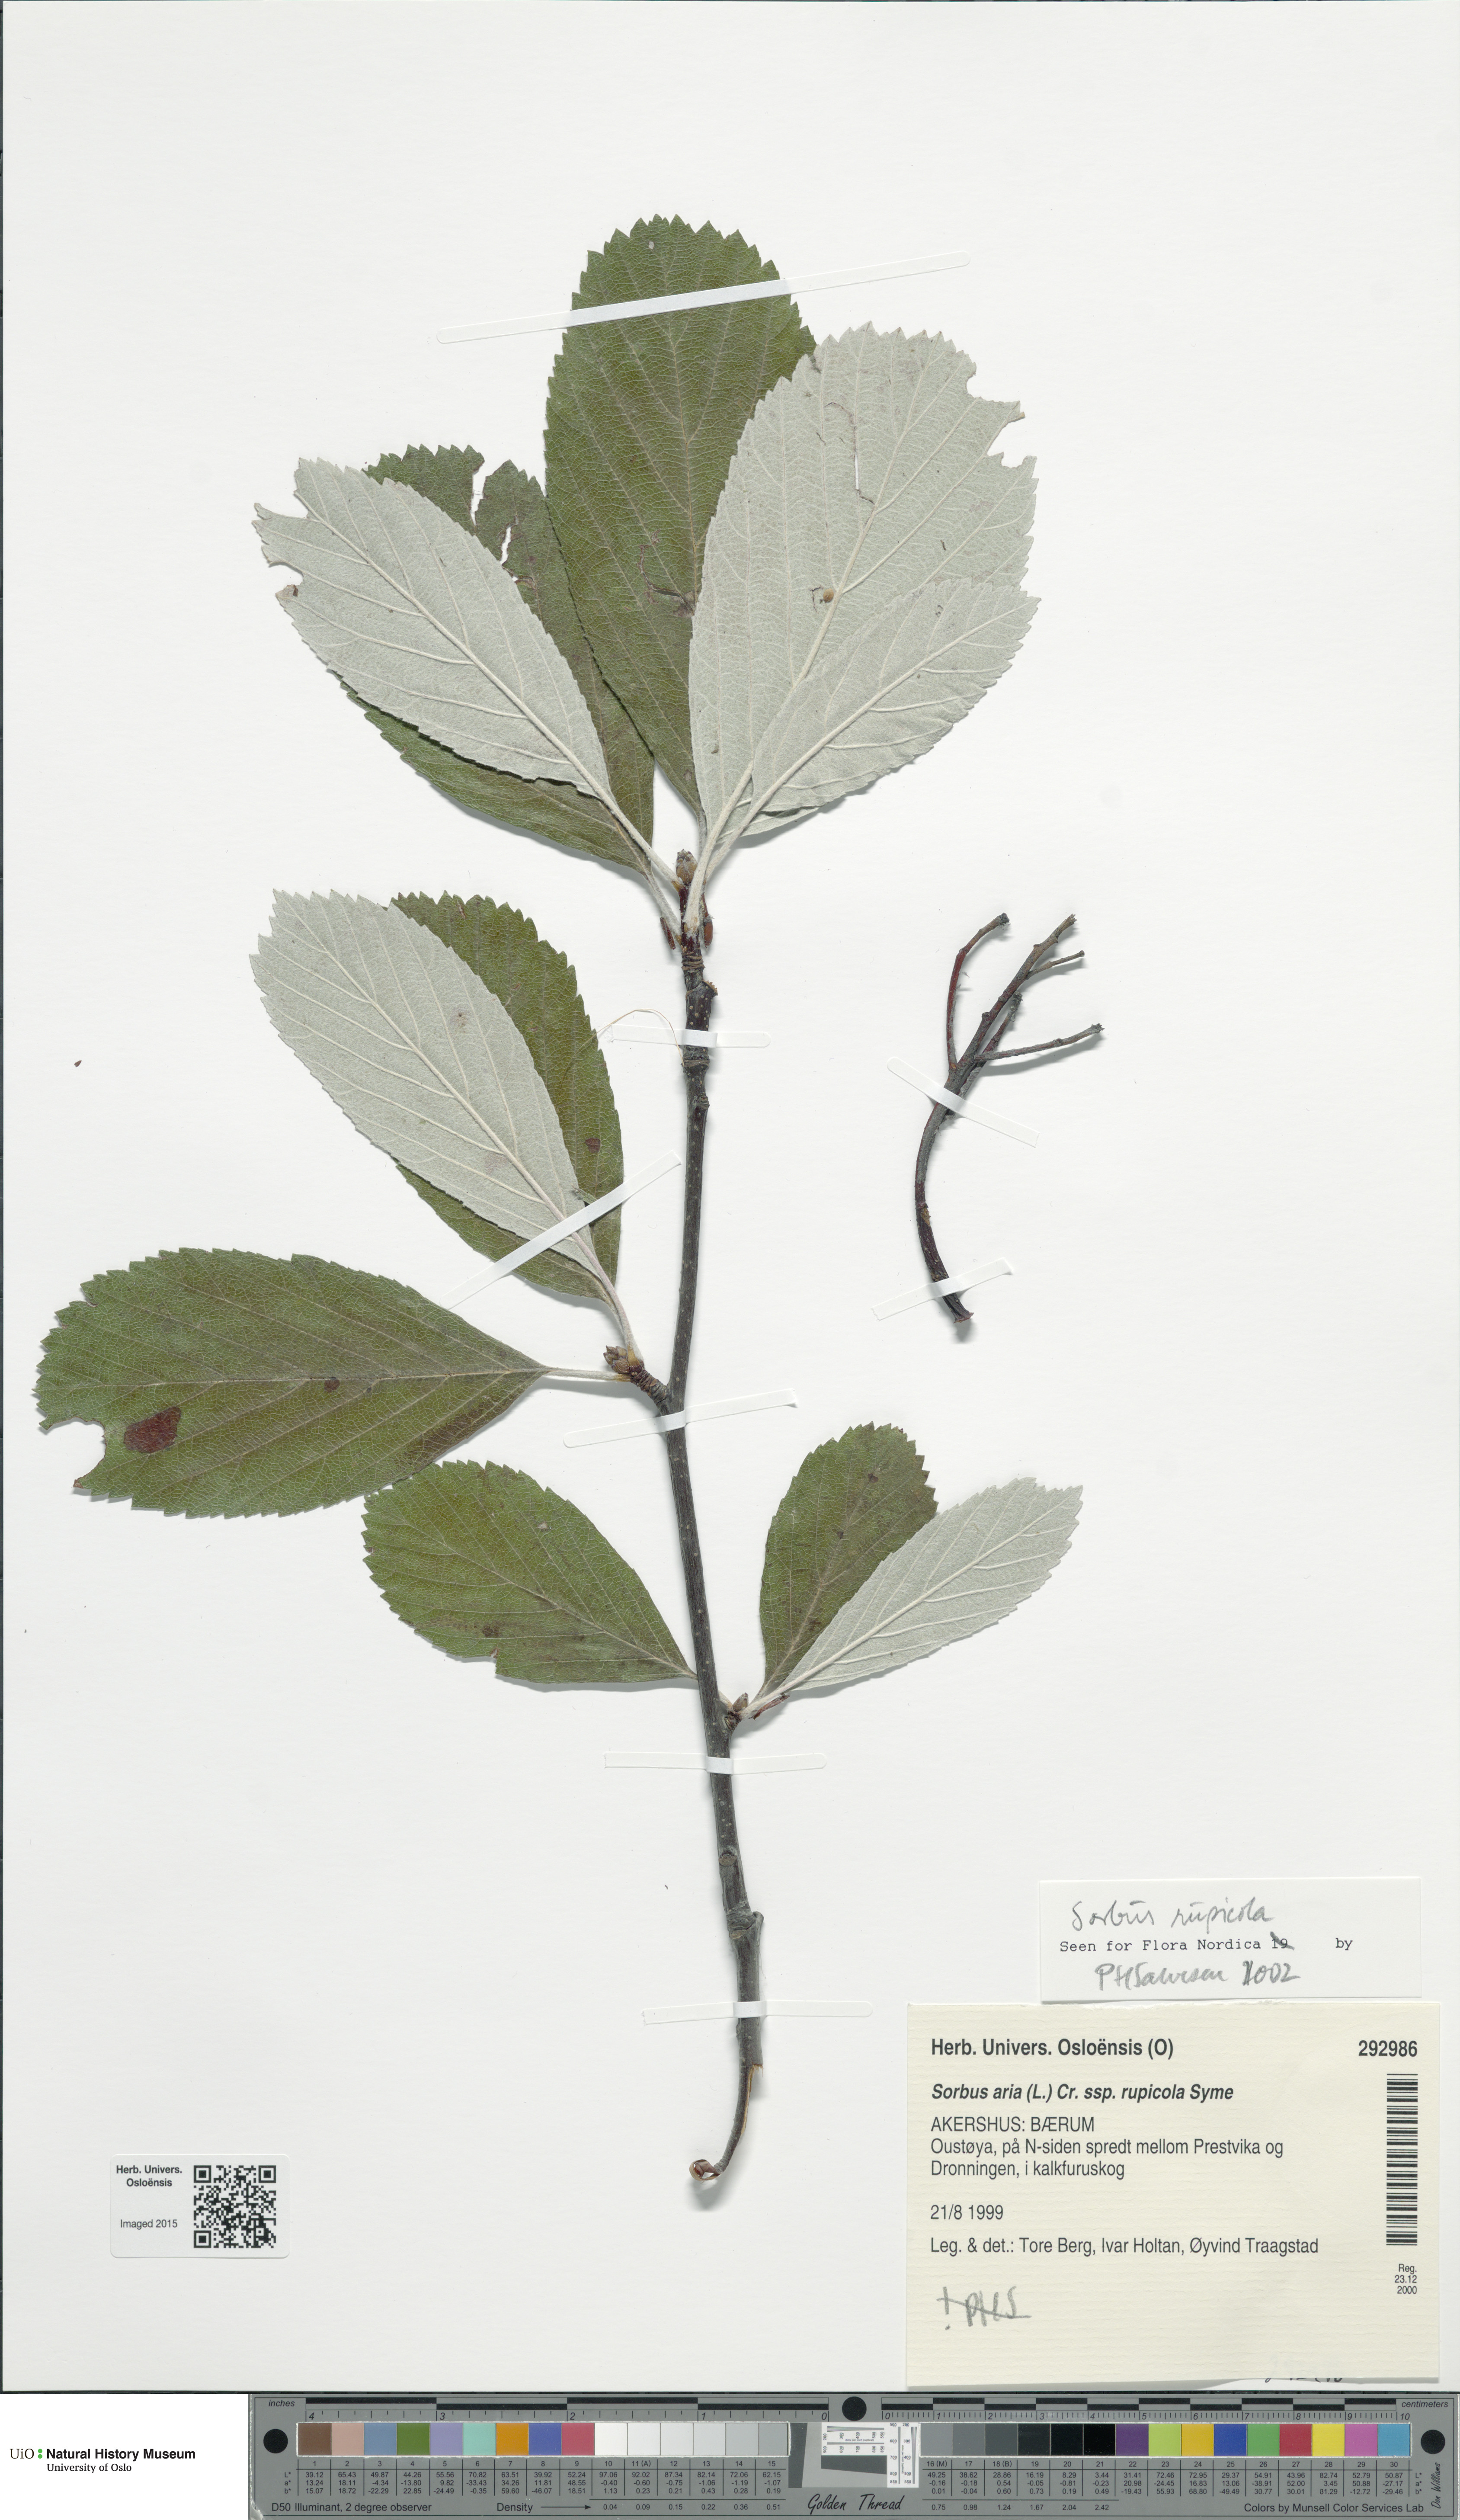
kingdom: Plantae
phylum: Tracheophyta
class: Magnoliopsida
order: Rosales
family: Rosaceae
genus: Aria
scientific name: Aria rupicola
